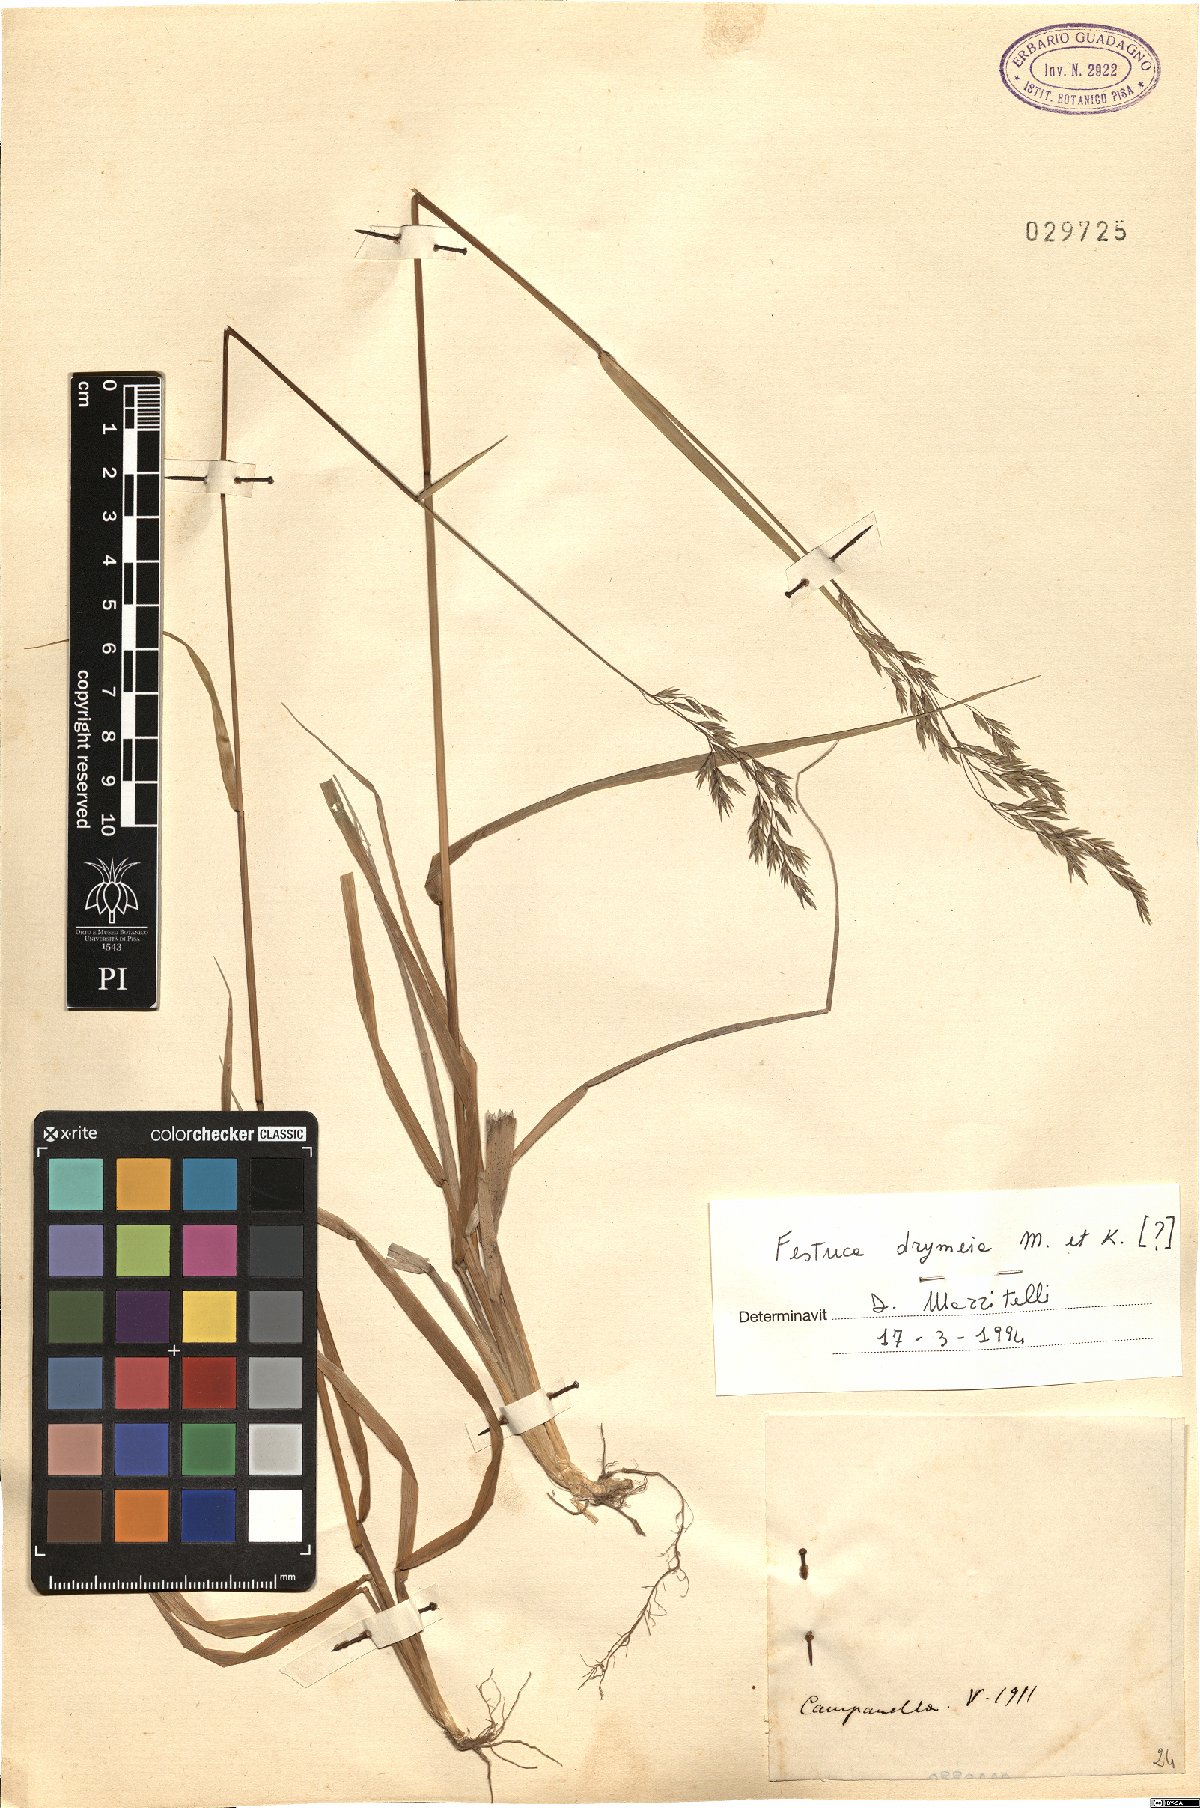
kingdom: Plantae
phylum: Tracheophyta
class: Liliopsida
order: Poales
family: Poaceae
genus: Festuca
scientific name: Festuca drymeja
